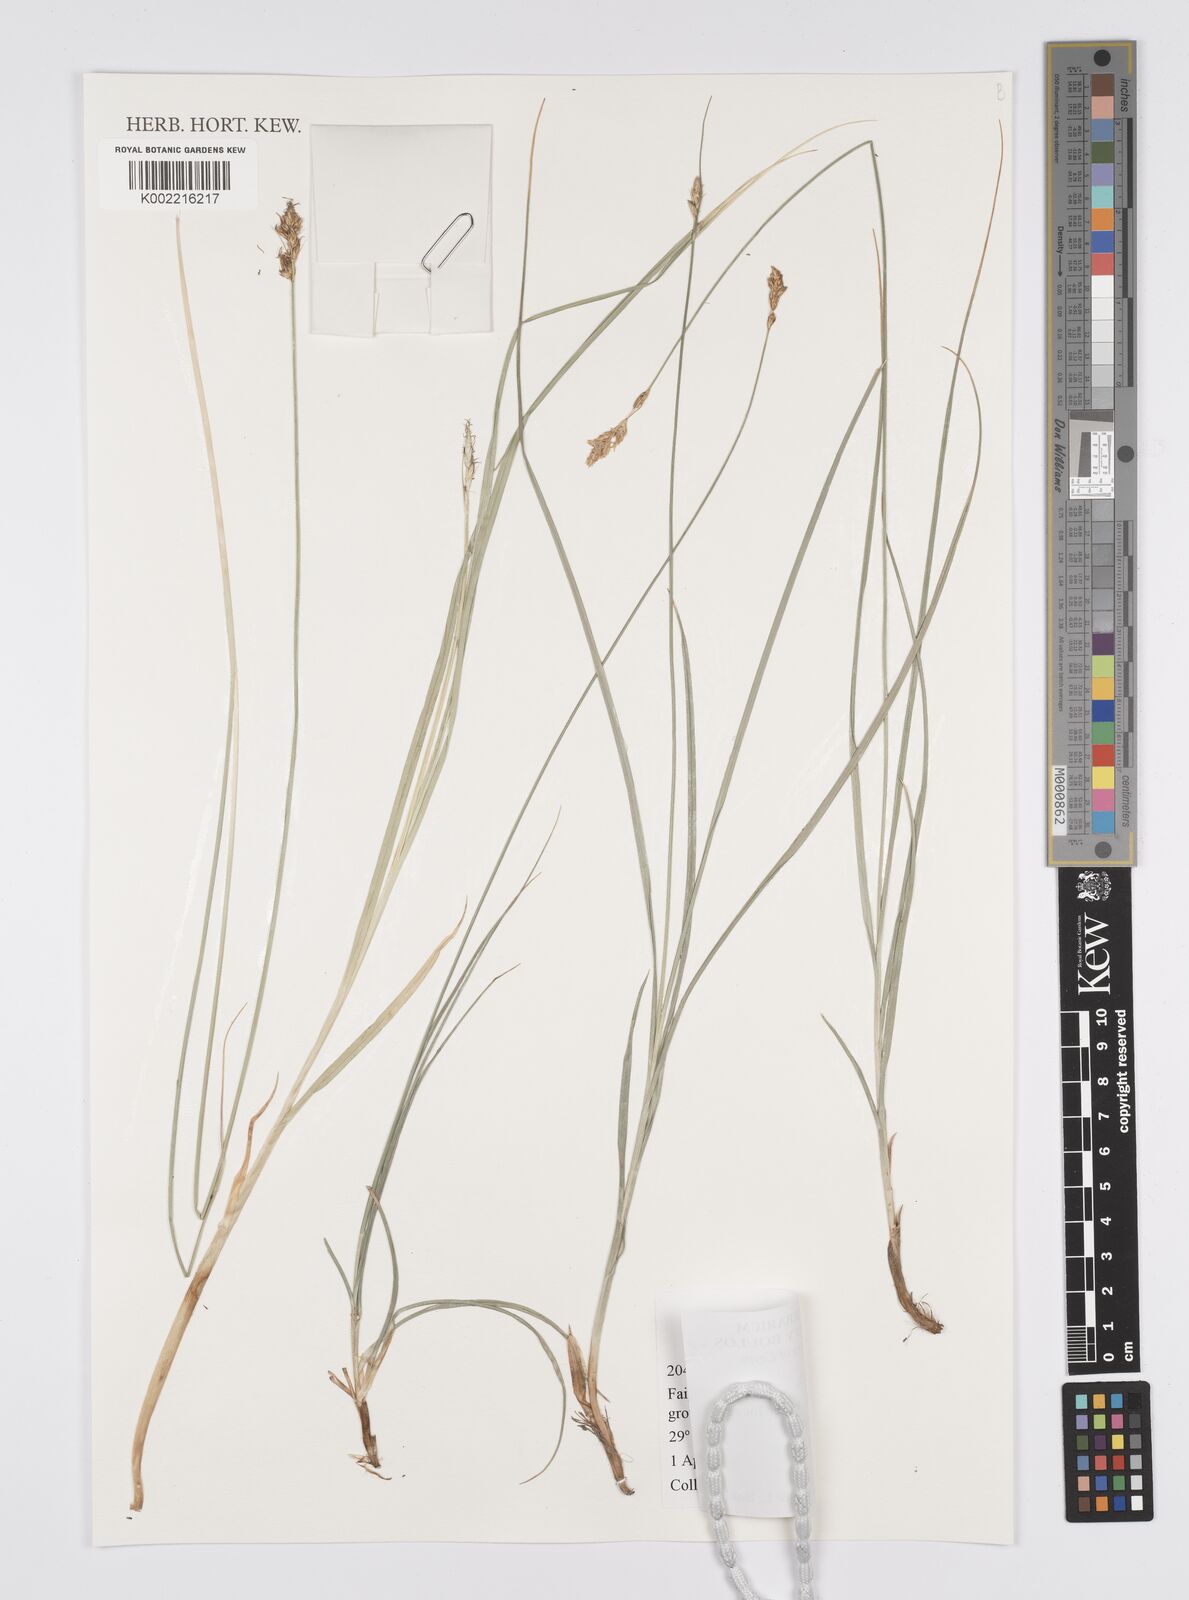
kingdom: Plantae
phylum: Tracheophyta
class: Liliopsida
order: Poales
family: Cyperaceae
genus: Carex
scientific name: Carex divisa
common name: Divided sedge
